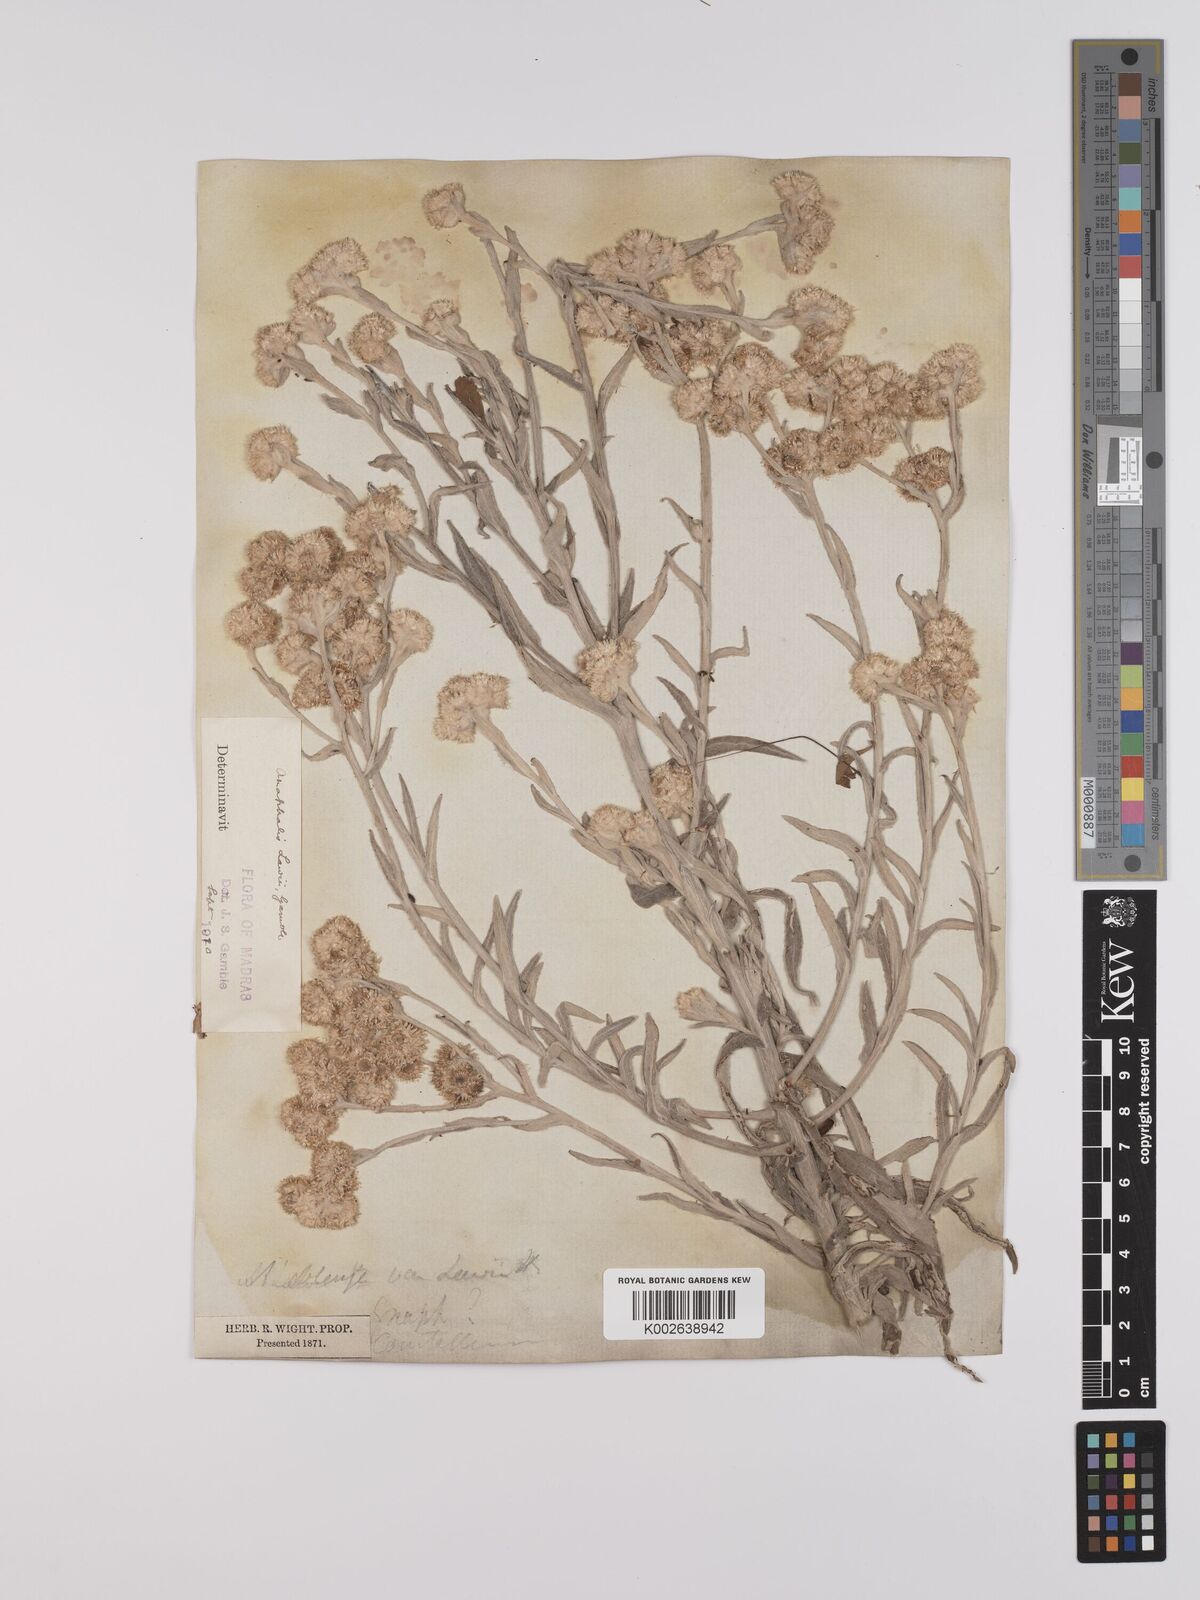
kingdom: Plantae
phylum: Tracheophyta
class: Magnoliopsida
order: Asterales
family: Asteraceae
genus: Anaphalis
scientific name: Anaphalis lawii
